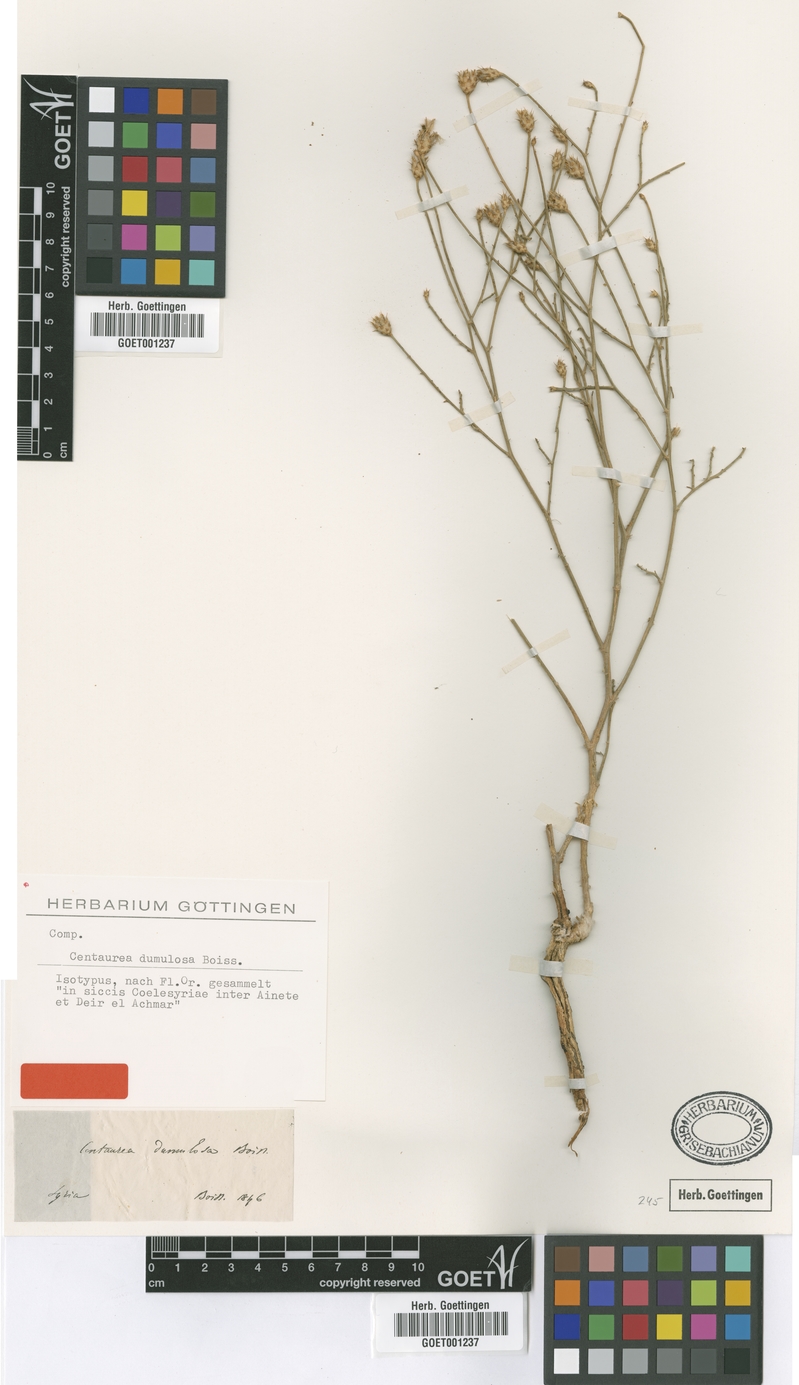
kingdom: Plantae
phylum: Tracheophyta
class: Magnoliopsida
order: Asterales
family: Asteraceae
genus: Centaurea
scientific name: Centaurea dumulosa
